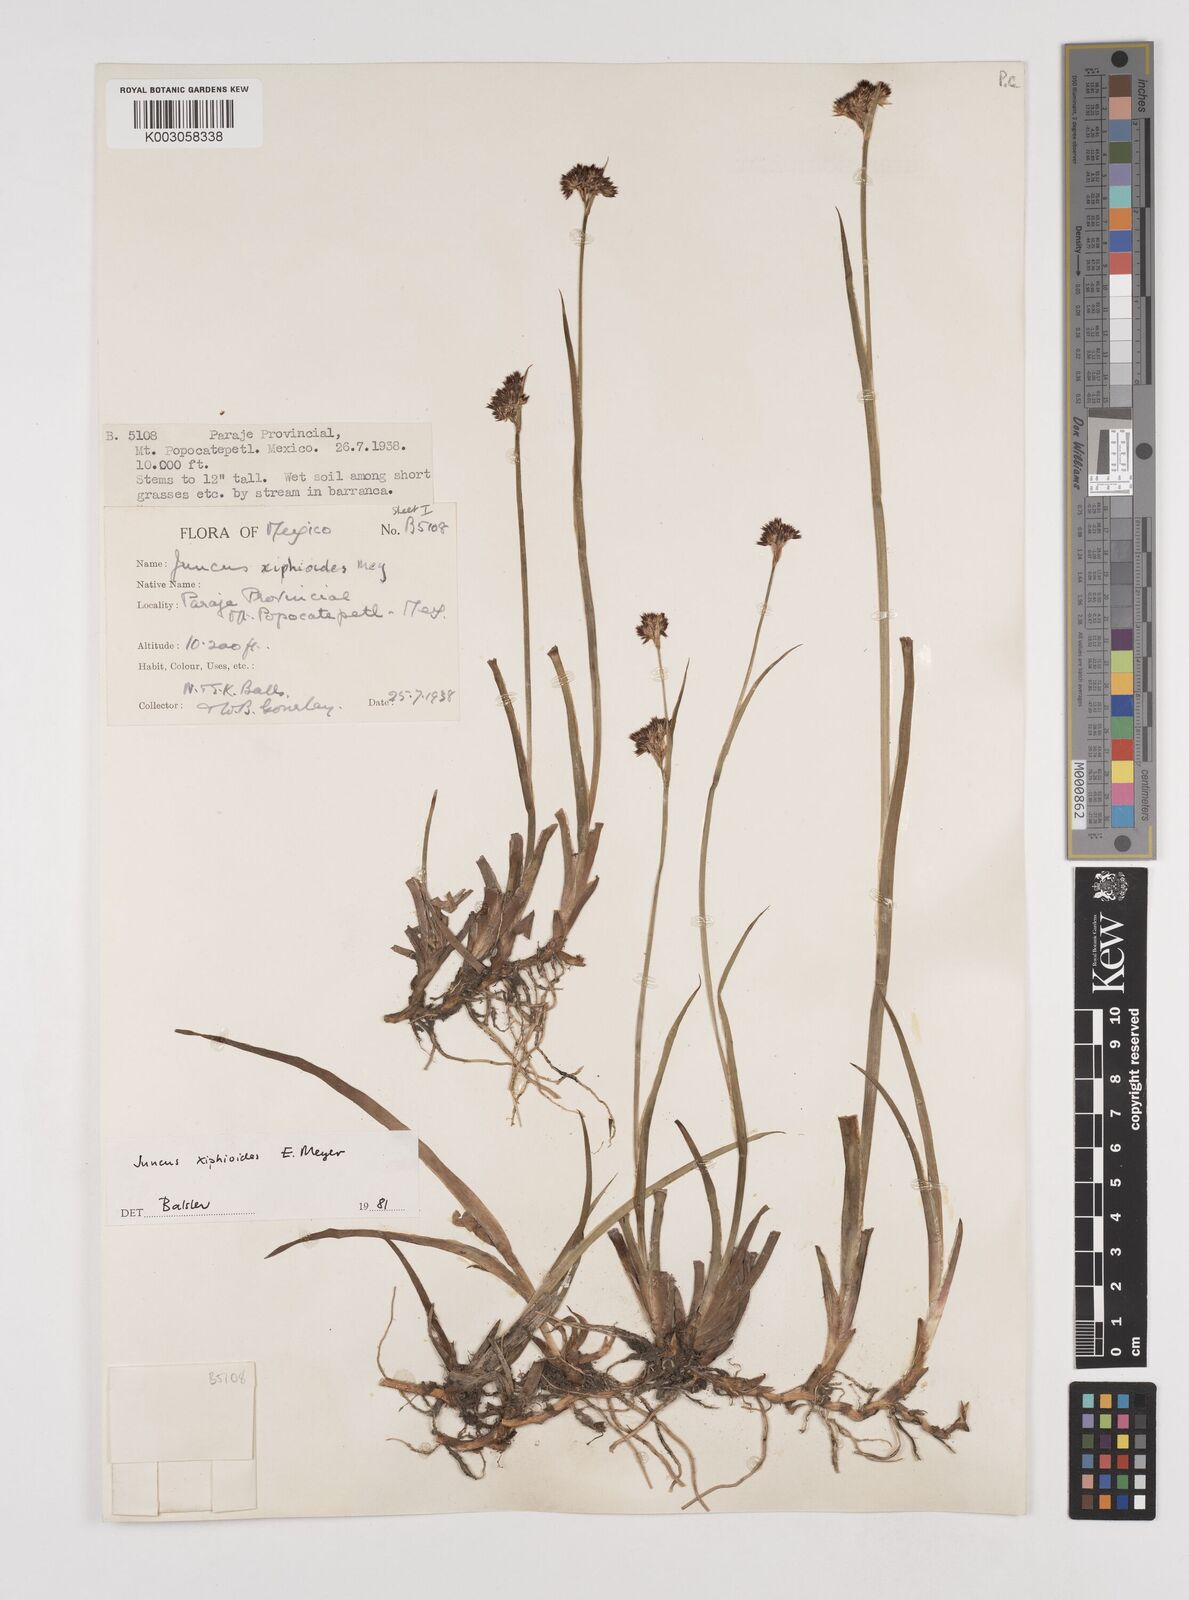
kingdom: Plantae
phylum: Tracheophyta
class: Liliopsida
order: Poales
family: Juncaceae
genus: Juncus
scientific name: Juncus xiphioides
